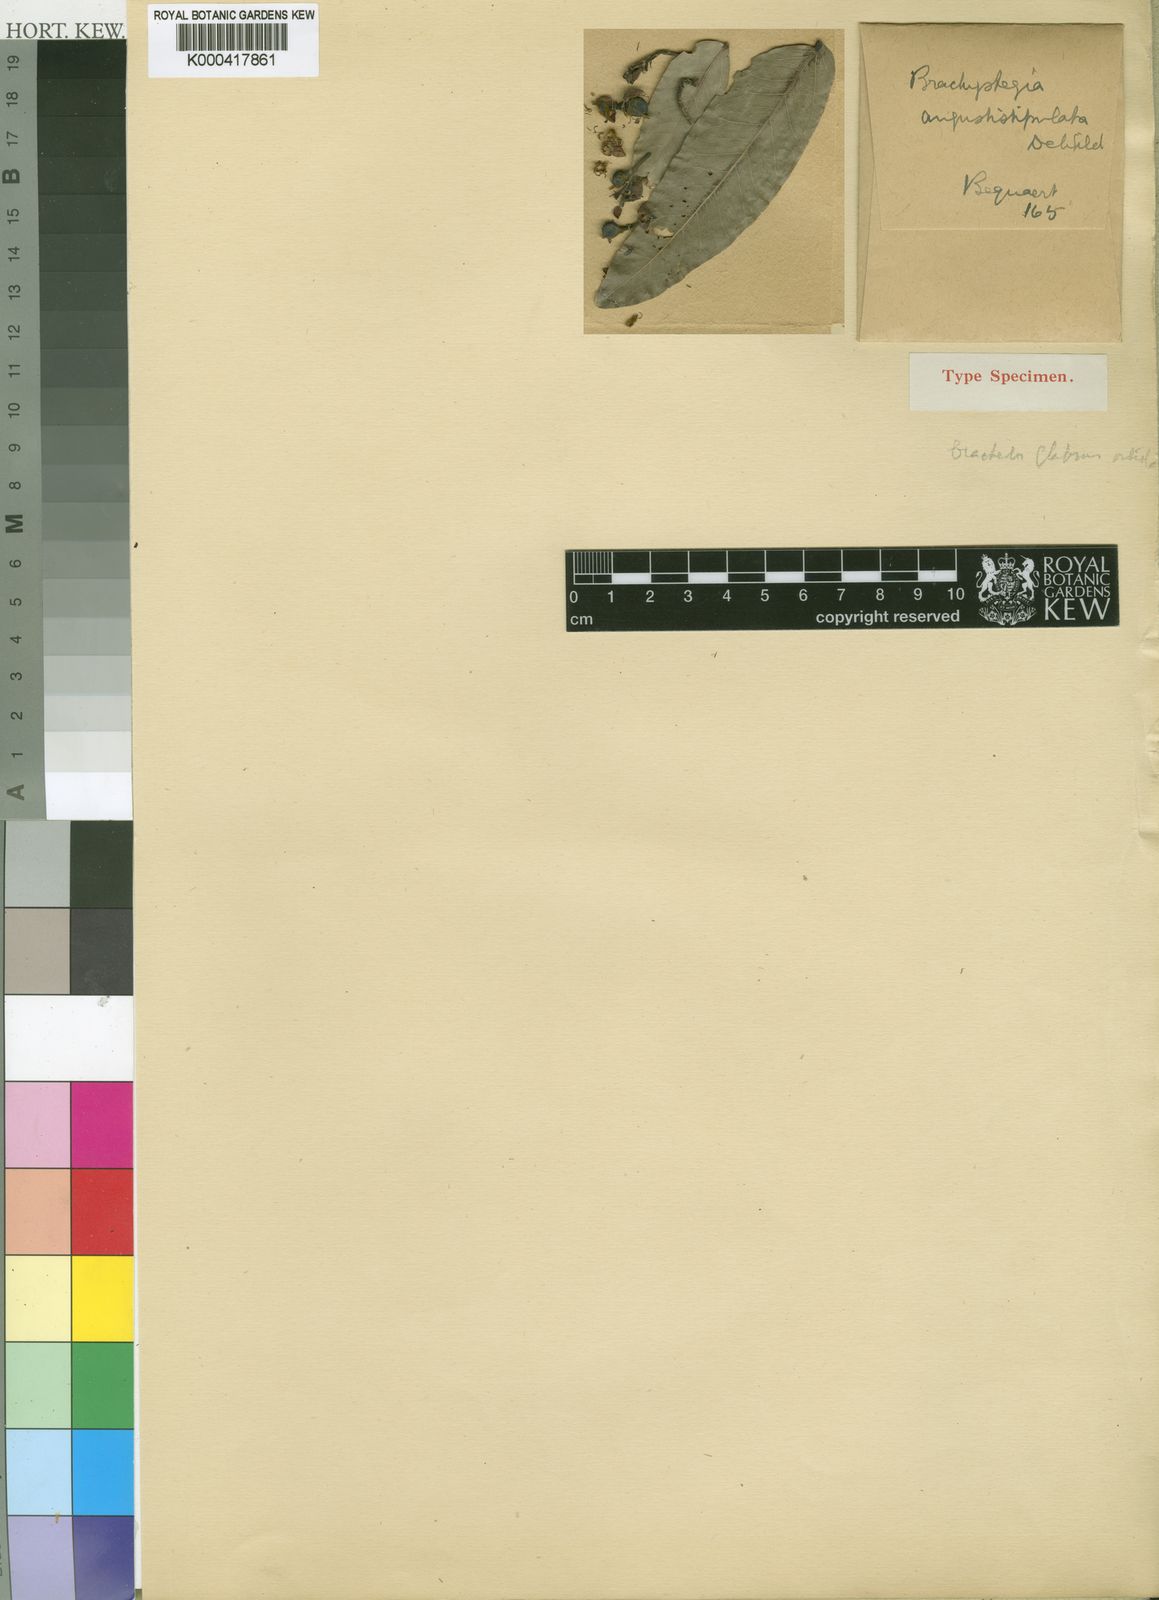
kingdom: Plantae
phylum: Tracheophyta
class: Magnoliopsida
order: Fabales
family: Fabaceae
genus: Brachystegia
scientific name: Brachystegia longifolia
